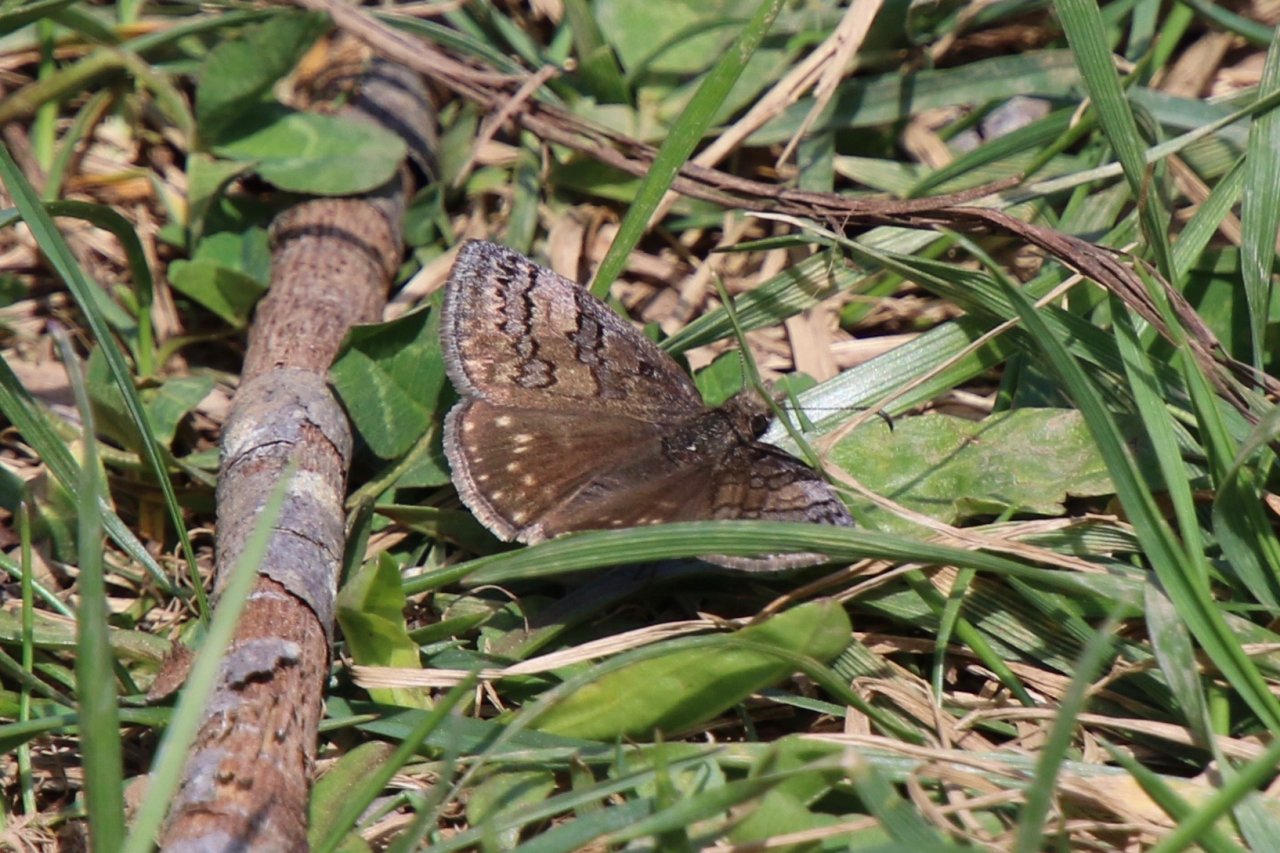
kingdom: Animalia
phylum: Arthropoda
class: Insecta
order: Lepidoptera
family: Hesperiidae
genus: Erynnis
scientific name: Erynnis brizo
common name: Sleepy Duskywing
